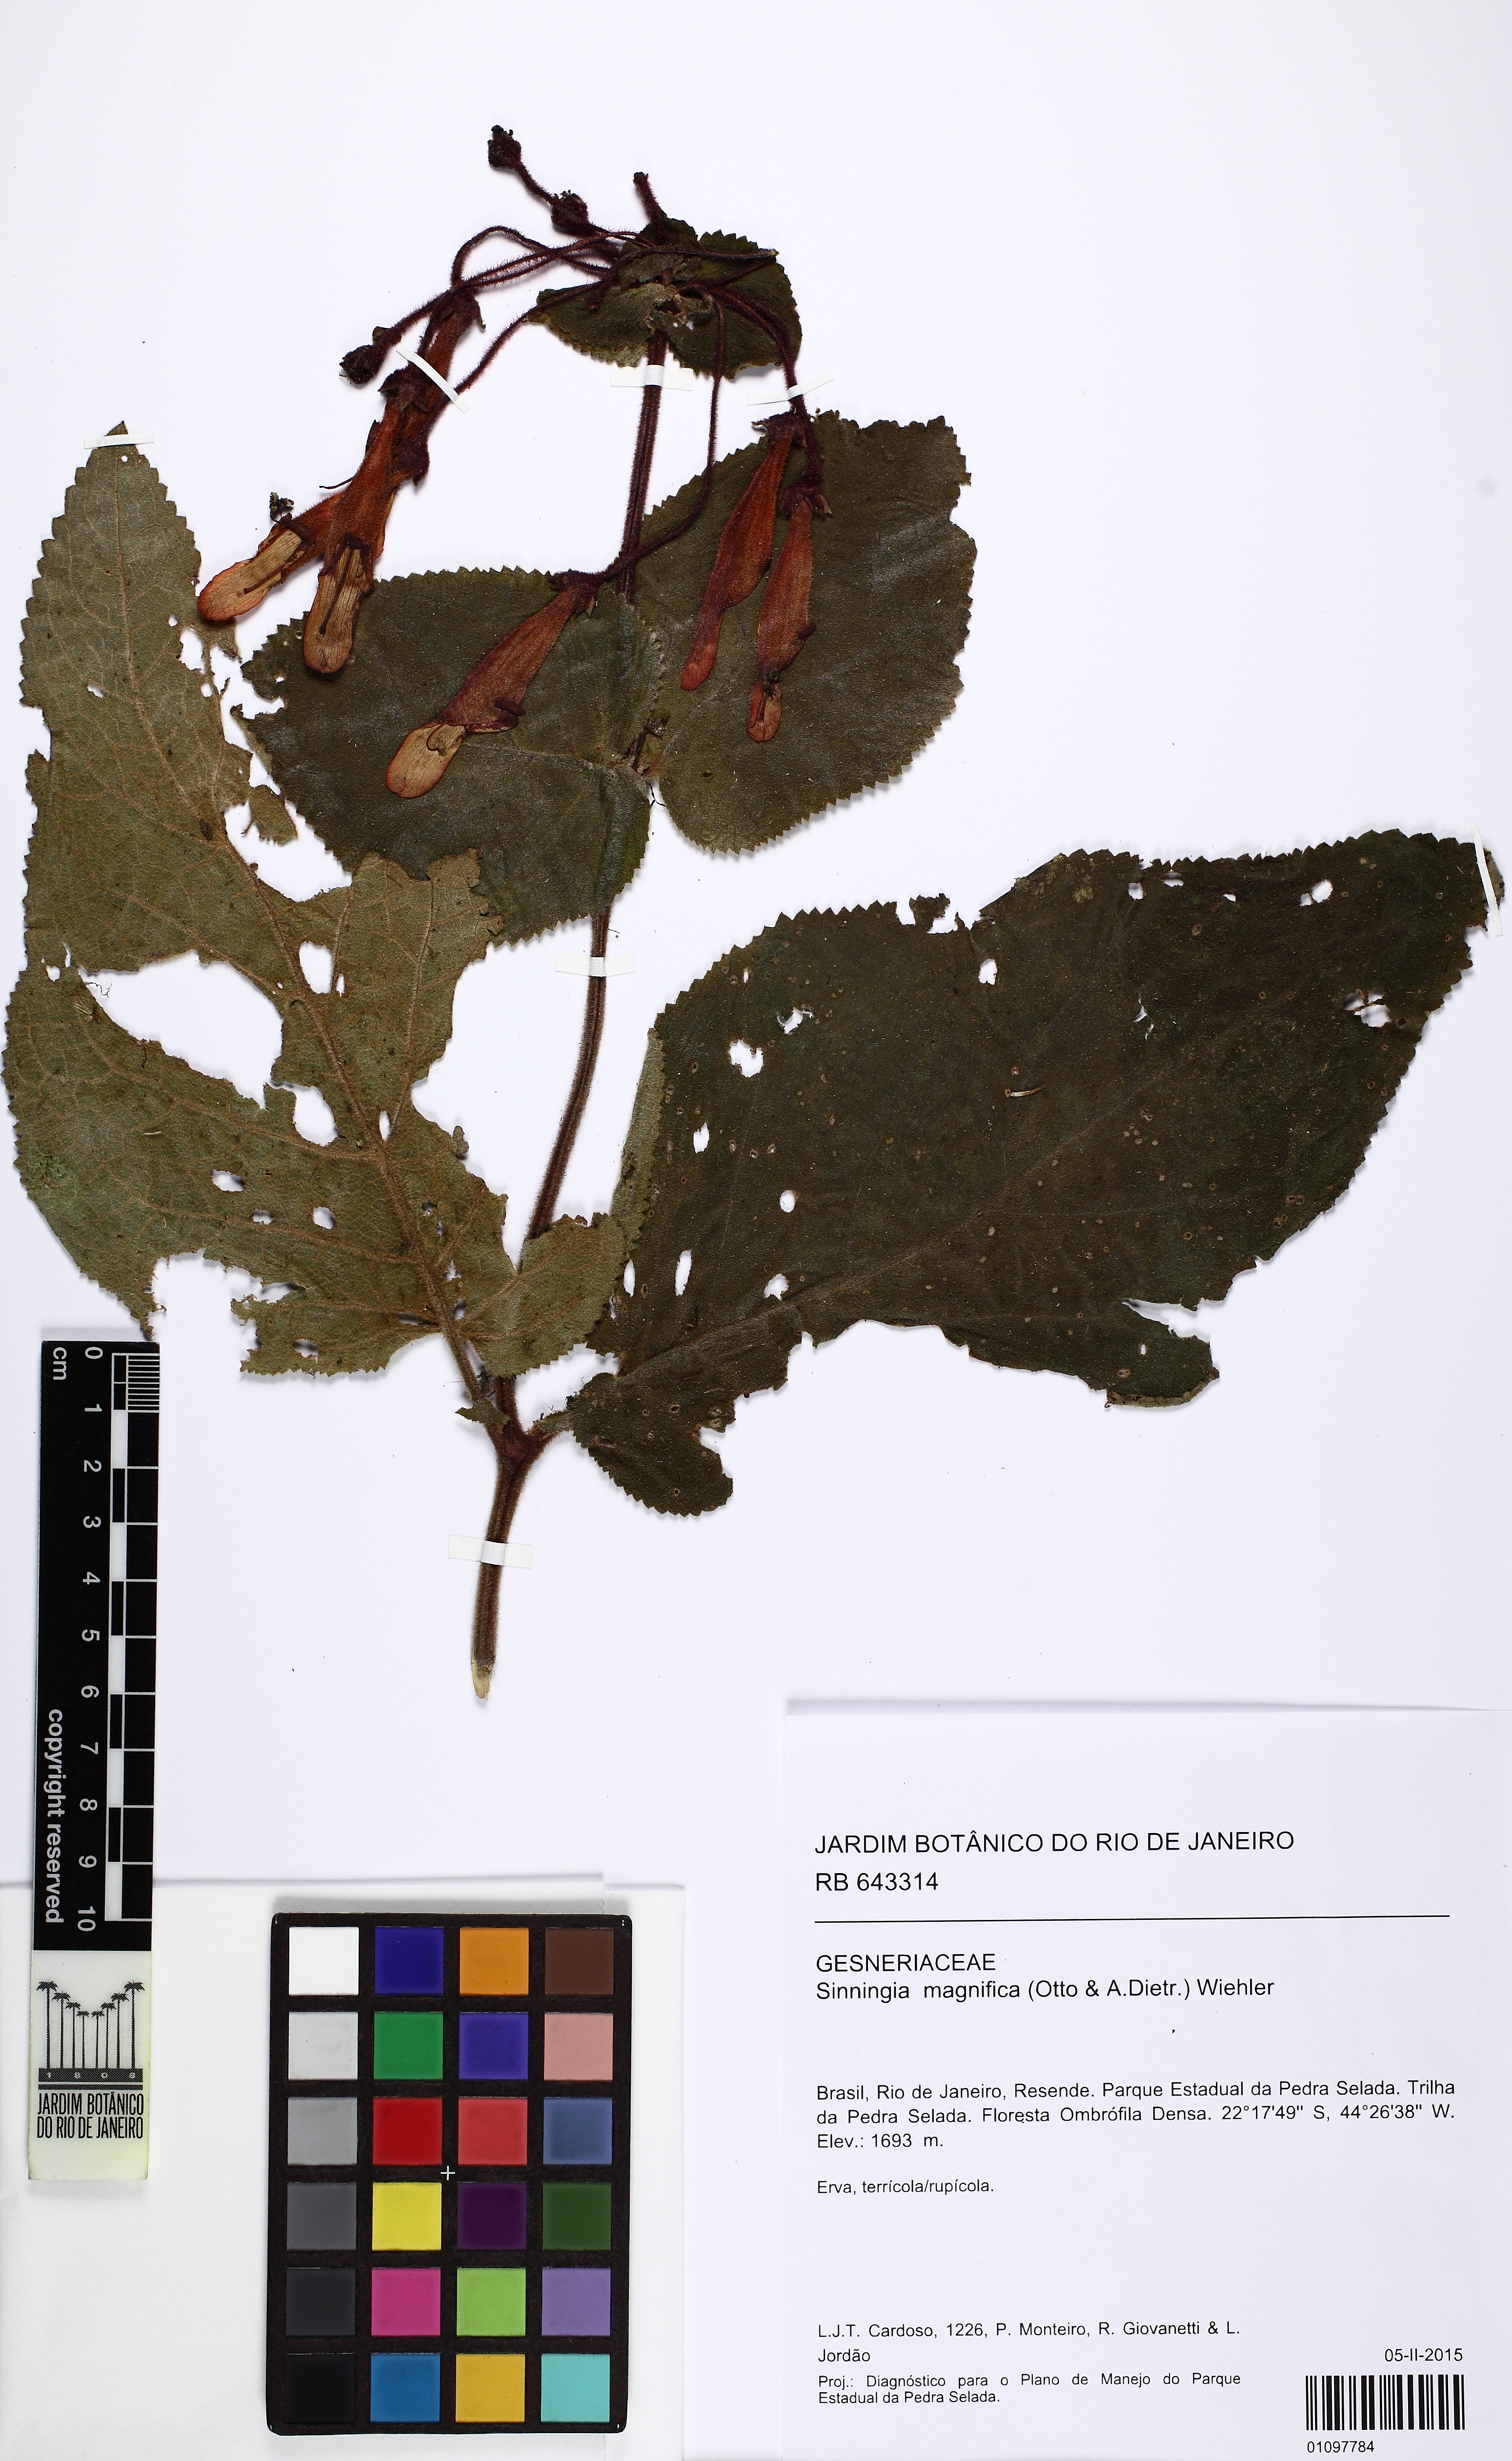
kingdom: Plantae
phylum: Tracheophyta
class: Magnoliopsida
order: Lamiales
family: Gesneriaceae
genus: Sinningia
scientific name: Sinningia magnifica
